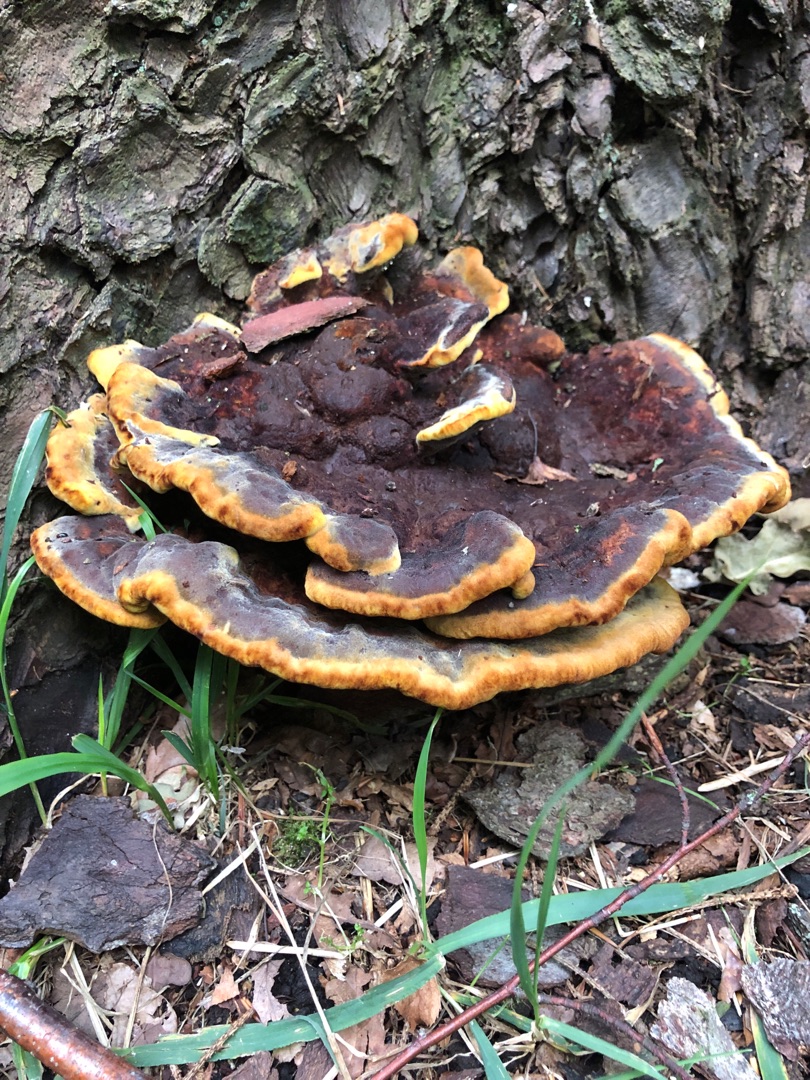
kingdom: Fungi
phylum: Basidiomycota
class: Agaricomycetes
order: Polyporales
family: Laetiporaceae
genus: Phaeolus
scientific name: Phaeolus schweinitzii
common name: Brunporesvamp
